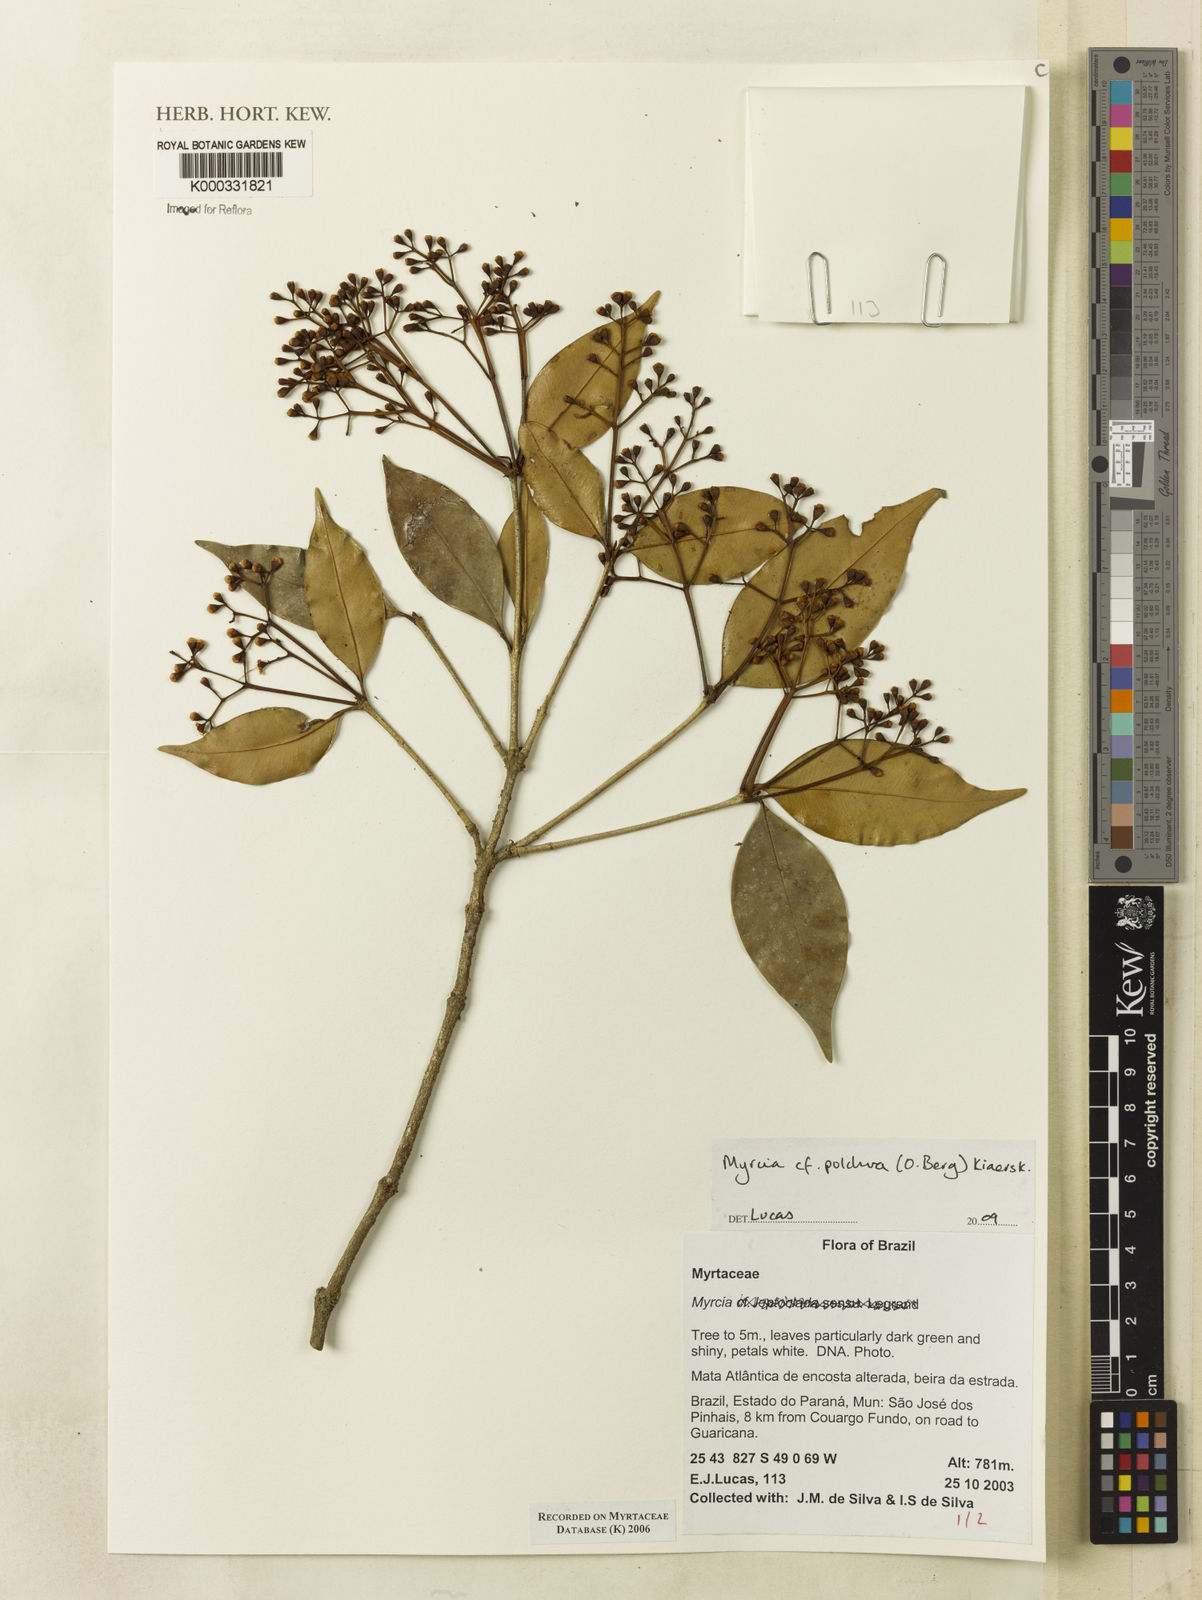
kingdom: Plantae
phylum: Tracheophyta
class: Magnoliopsida
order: Myrtales
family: Myrtaceae
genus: Myrcia
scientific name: Myrcia
